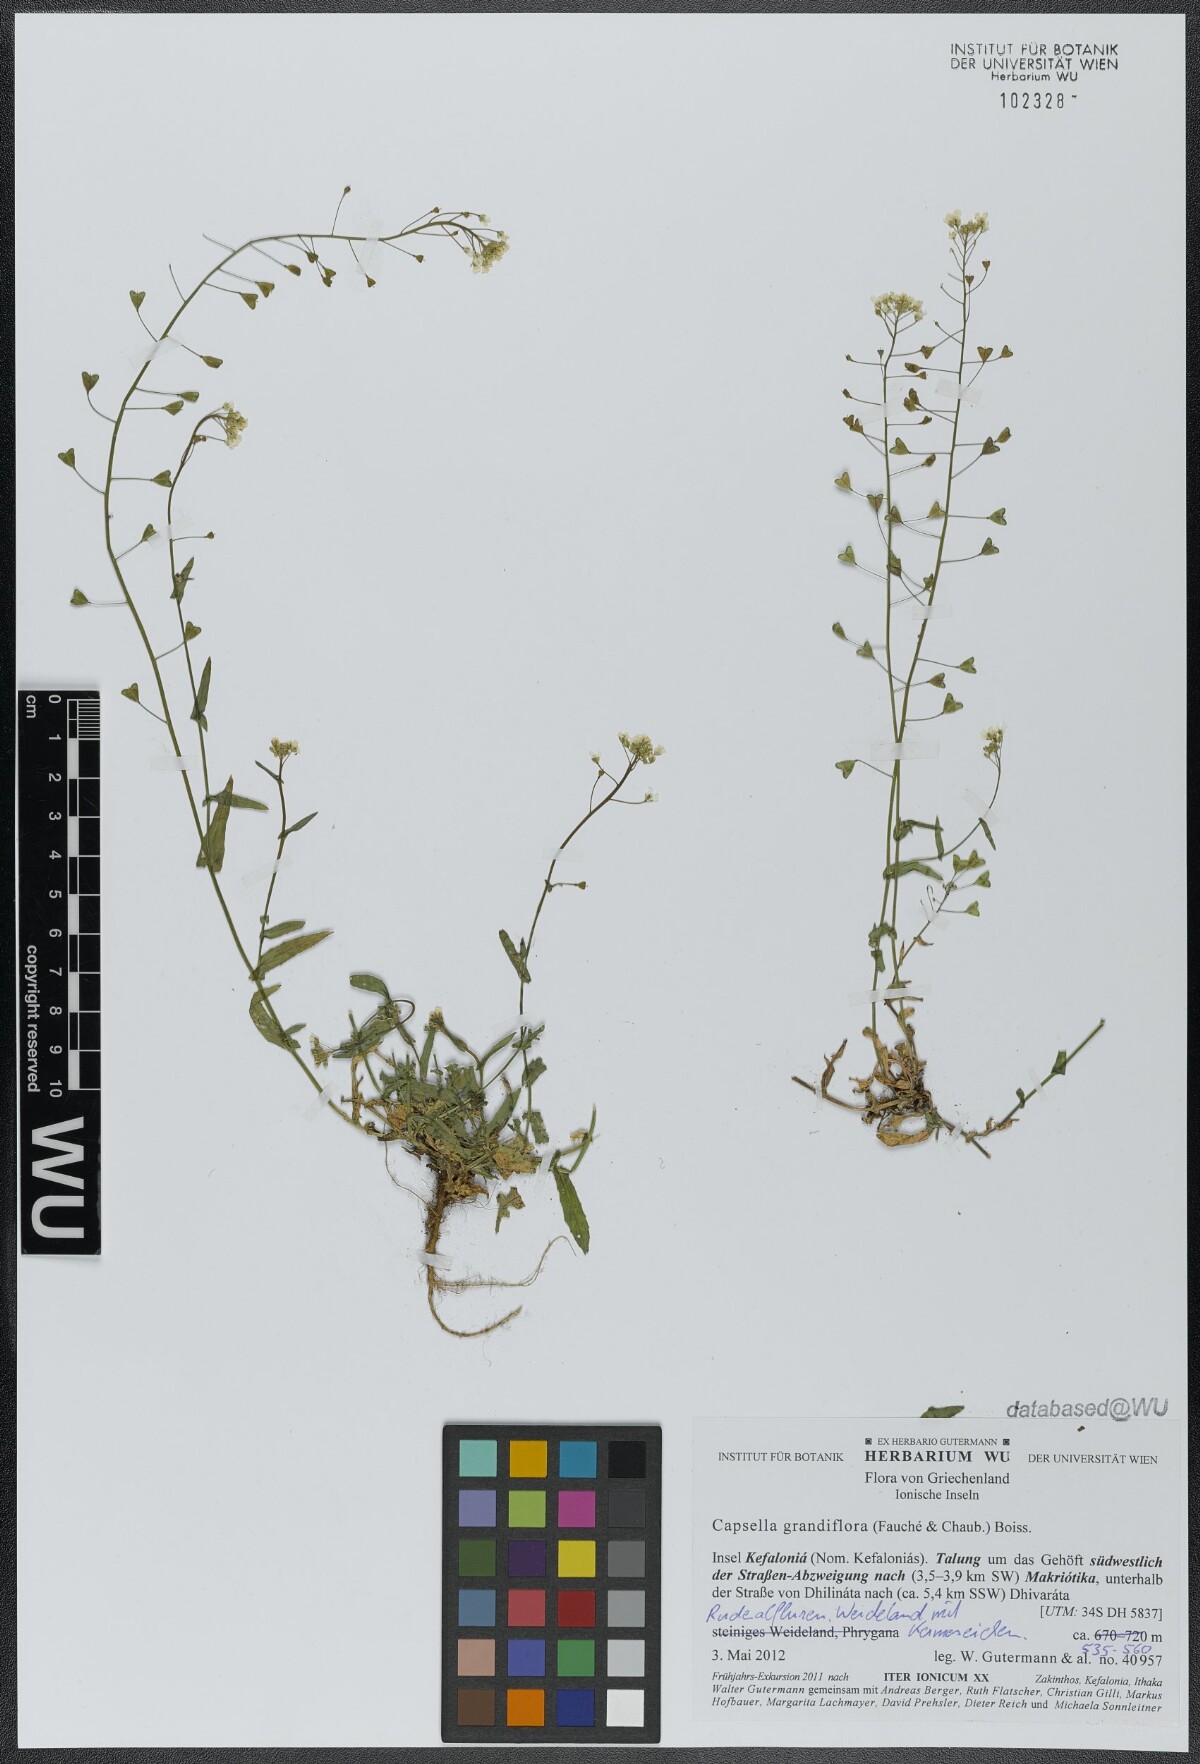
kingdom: Plantae
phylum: Tracheophyta
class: Magnoliopsida
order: Brassicales
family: Brassicaceae
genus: Capsella
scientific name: Capsella grandiflora
